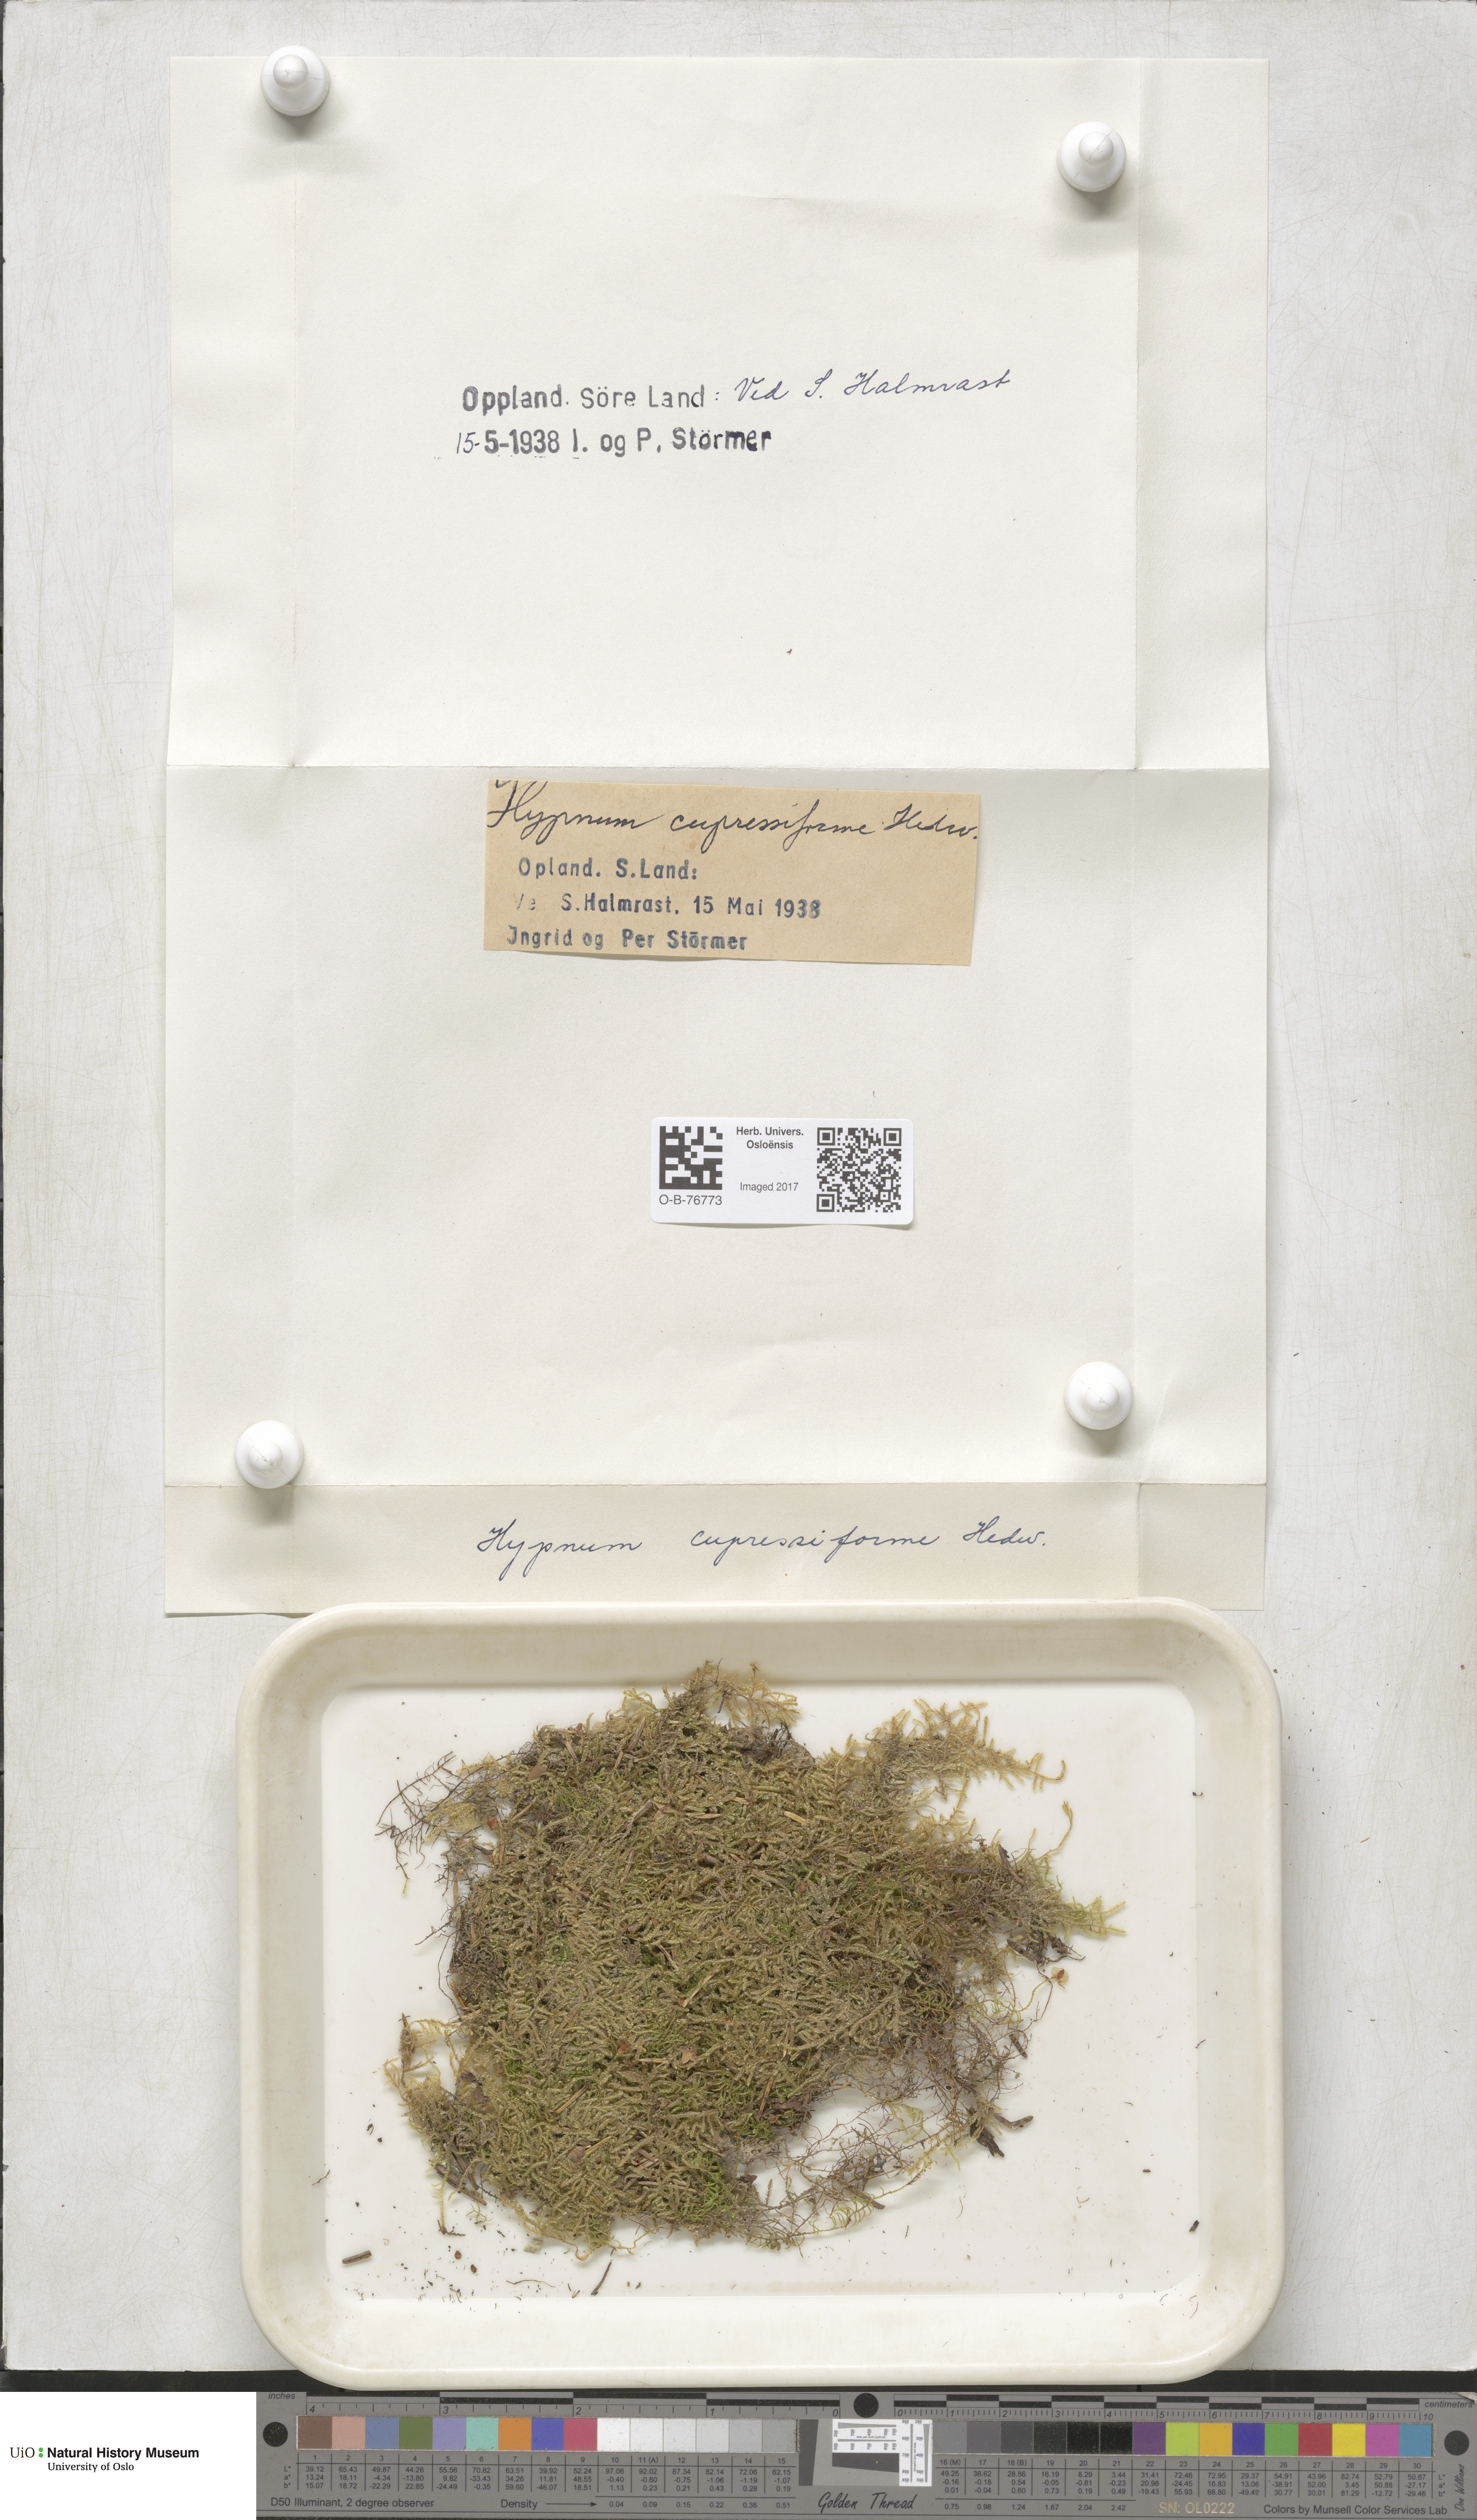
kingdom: Plantae
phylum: Bryophyta
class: Bryopsida
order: Hypnales
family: Hypnaceae
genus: Hypnum
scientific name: Hypnum cupressiforme
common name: Cypress-leaved plait-moss
